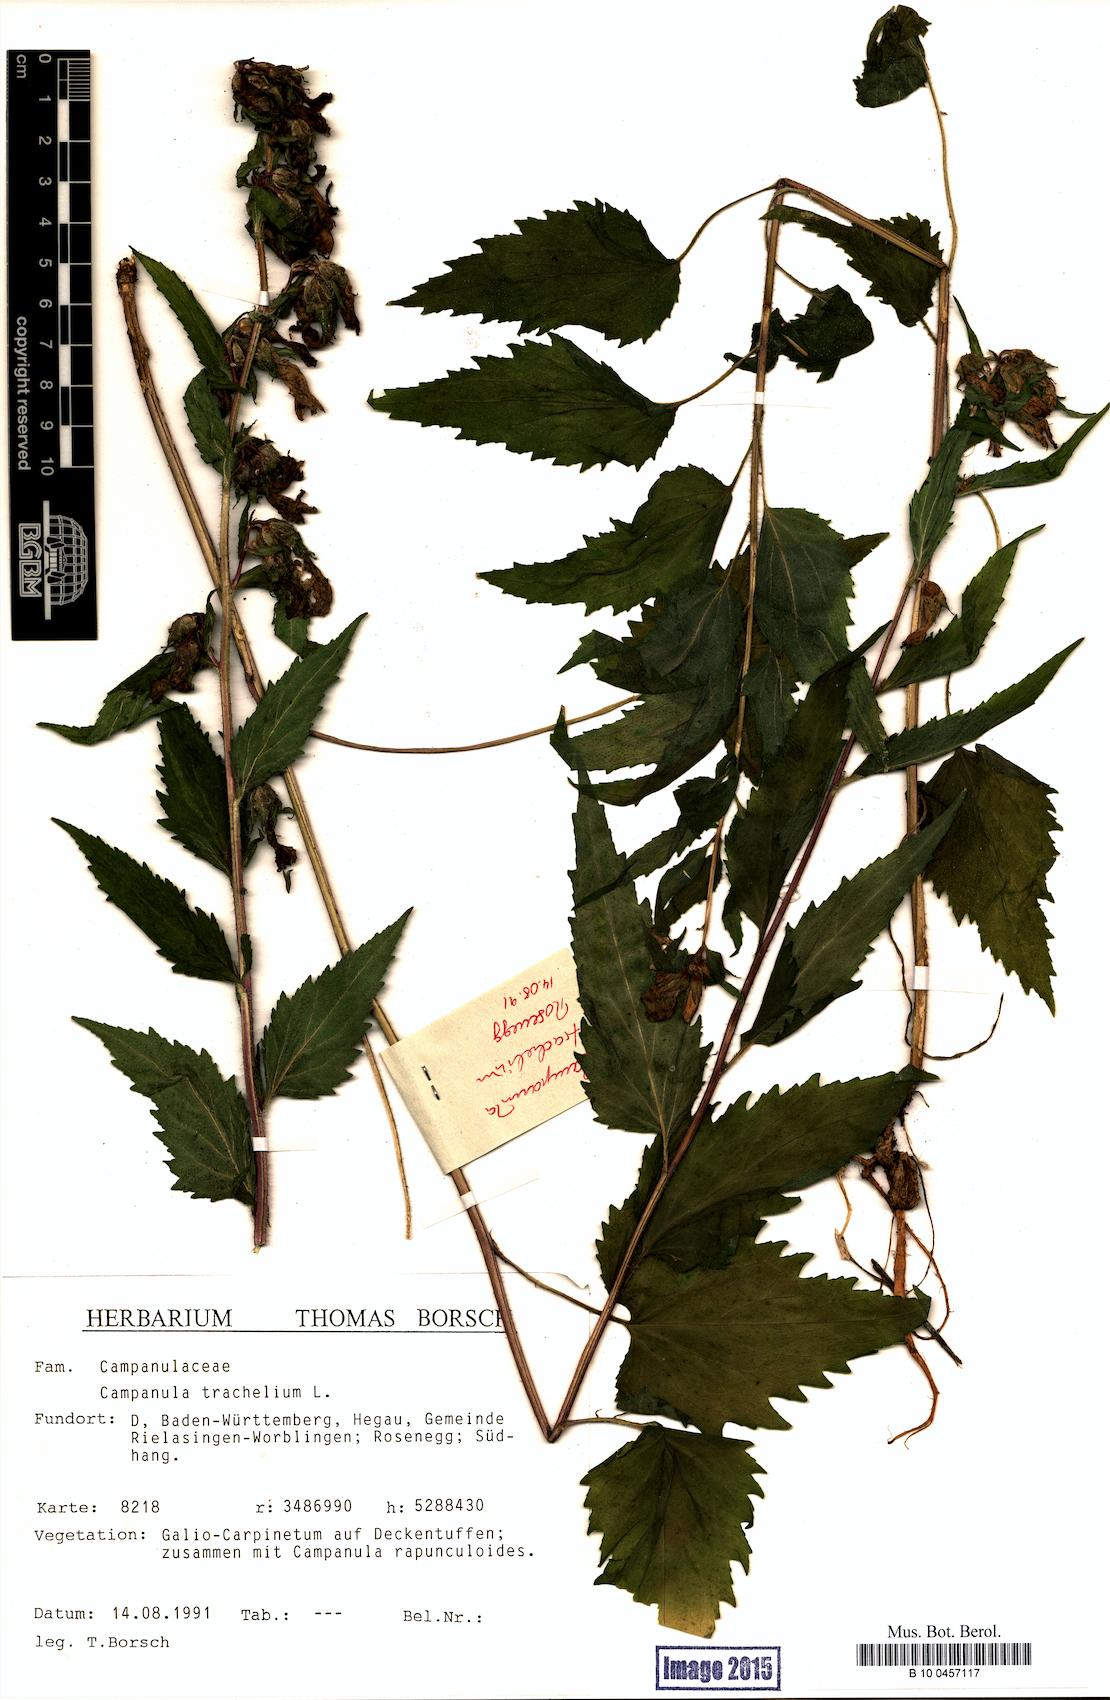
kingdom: Plantae
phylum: Tracheophyta
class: Magnoliopsida
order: Asterales
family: Campanulaceae
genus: Campanula
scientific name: Campanula trachelium
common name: Nettle-leaved bellflower
